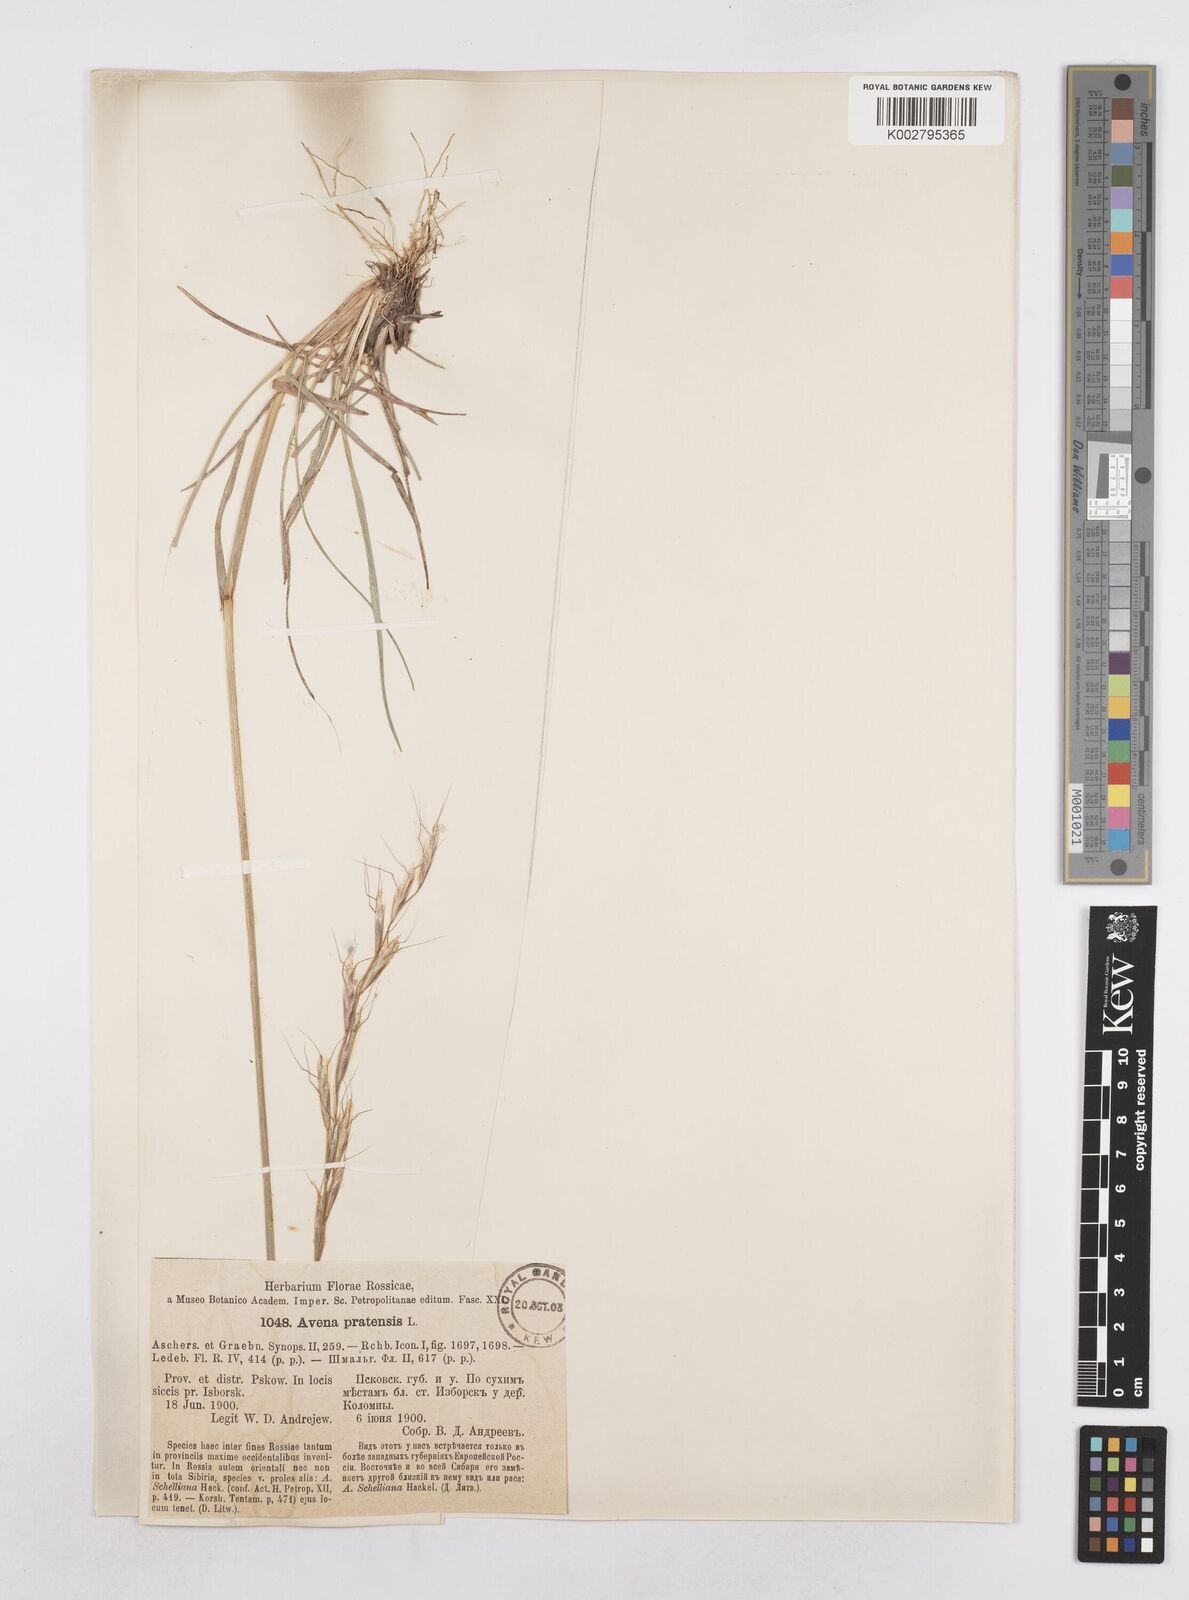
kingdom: Plantae
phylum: Tracheophyta
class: Liliopsida
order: Poales
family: Poaceae
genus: Helictotrichon
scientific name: Helictotrichon
